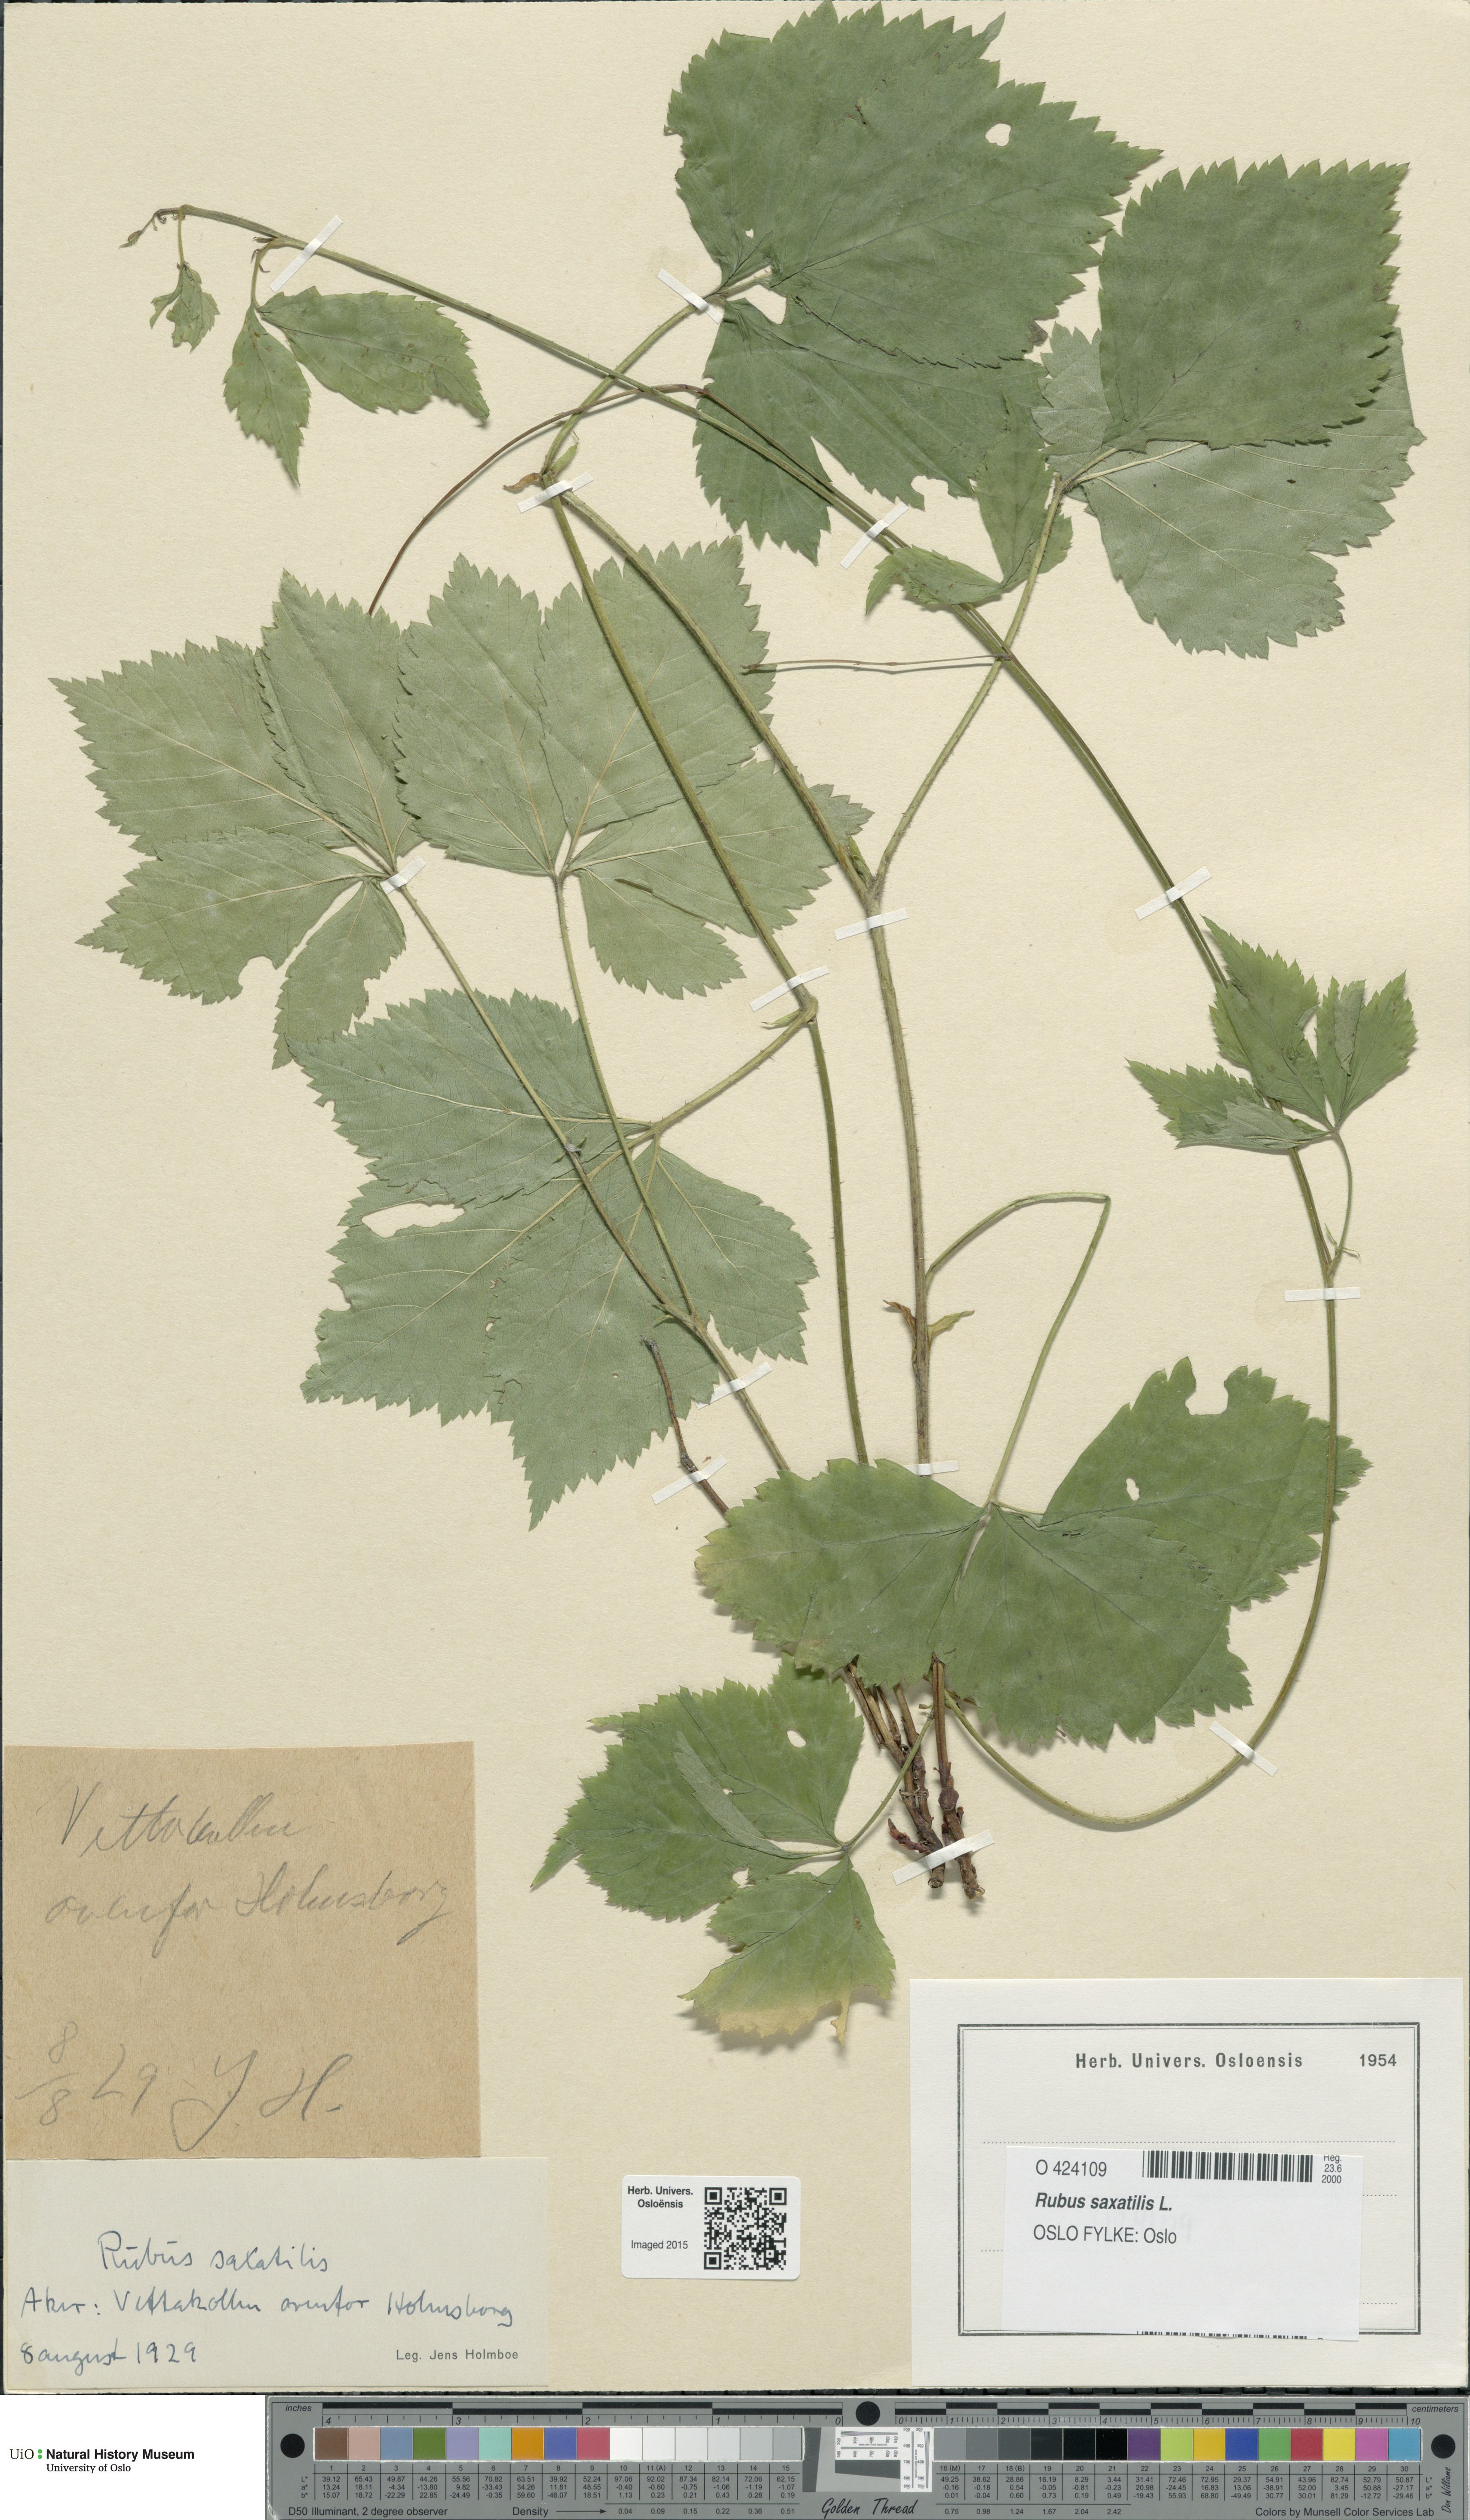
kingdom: Plantae
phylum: Tracheophyta
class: Magnoliopsida
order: Rosales
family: Rosaceae
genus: Rubus
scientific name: Rubus saxatilis
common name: Stone bramble
